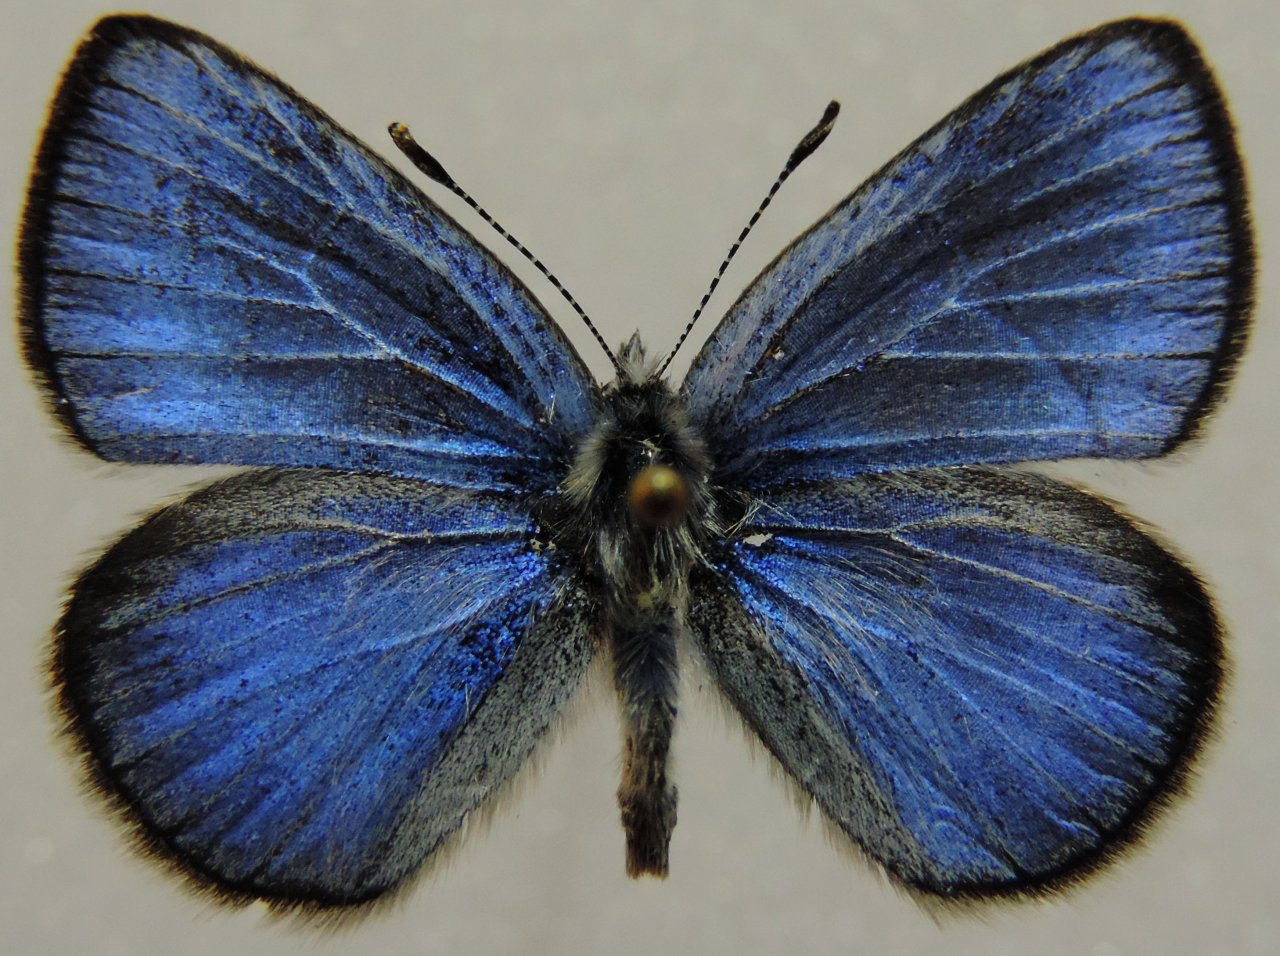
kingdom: Animalia
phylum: Arthropoda
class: Insecta
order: Lepidoptera
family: Lycaenidae
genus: Glaucopsyche
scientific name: Glaucopsyche lygdamus
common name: Silvery Blue
